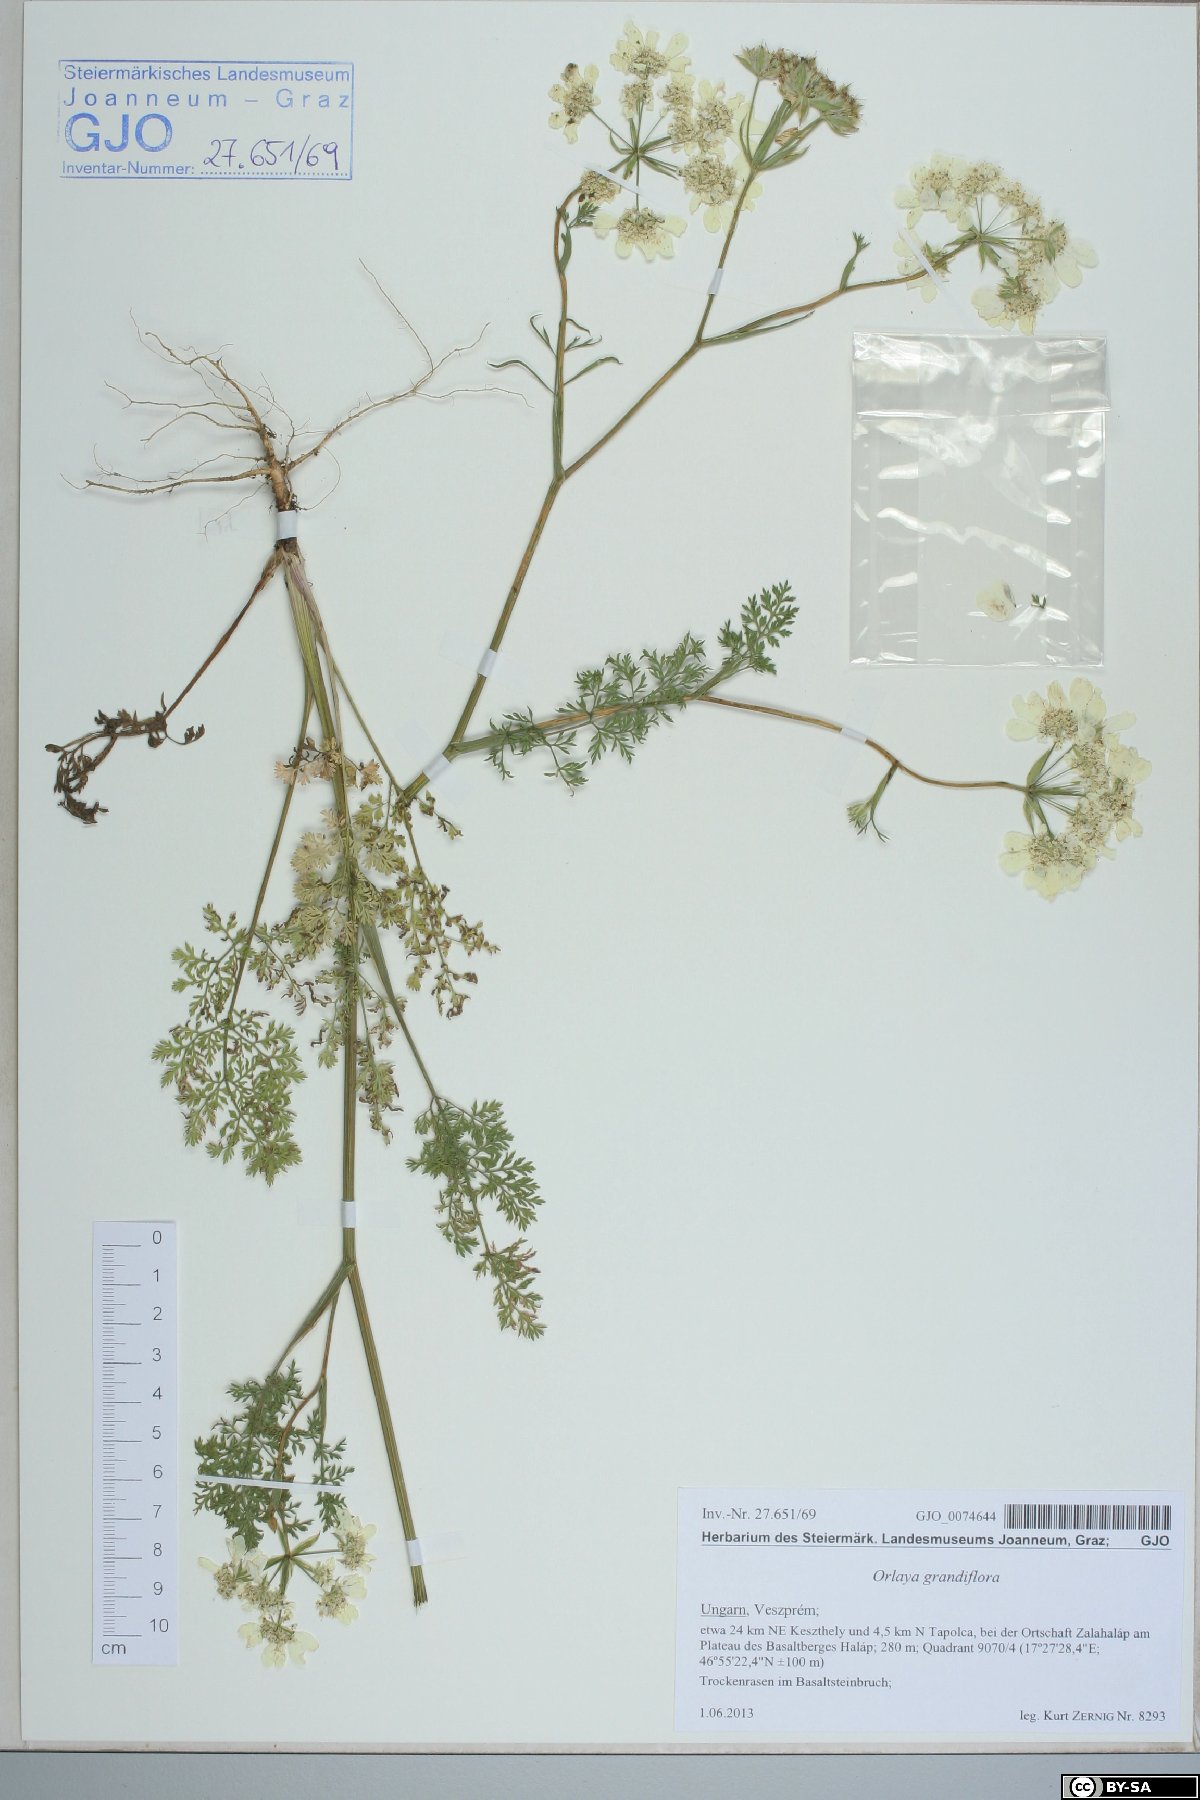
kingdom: Plantae
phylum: Tracheophyta
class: Magnoliopsida
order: Apiales
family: Apiaceae
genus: Orlaya
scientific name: Orlaya grandiflora
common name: White lace flower
